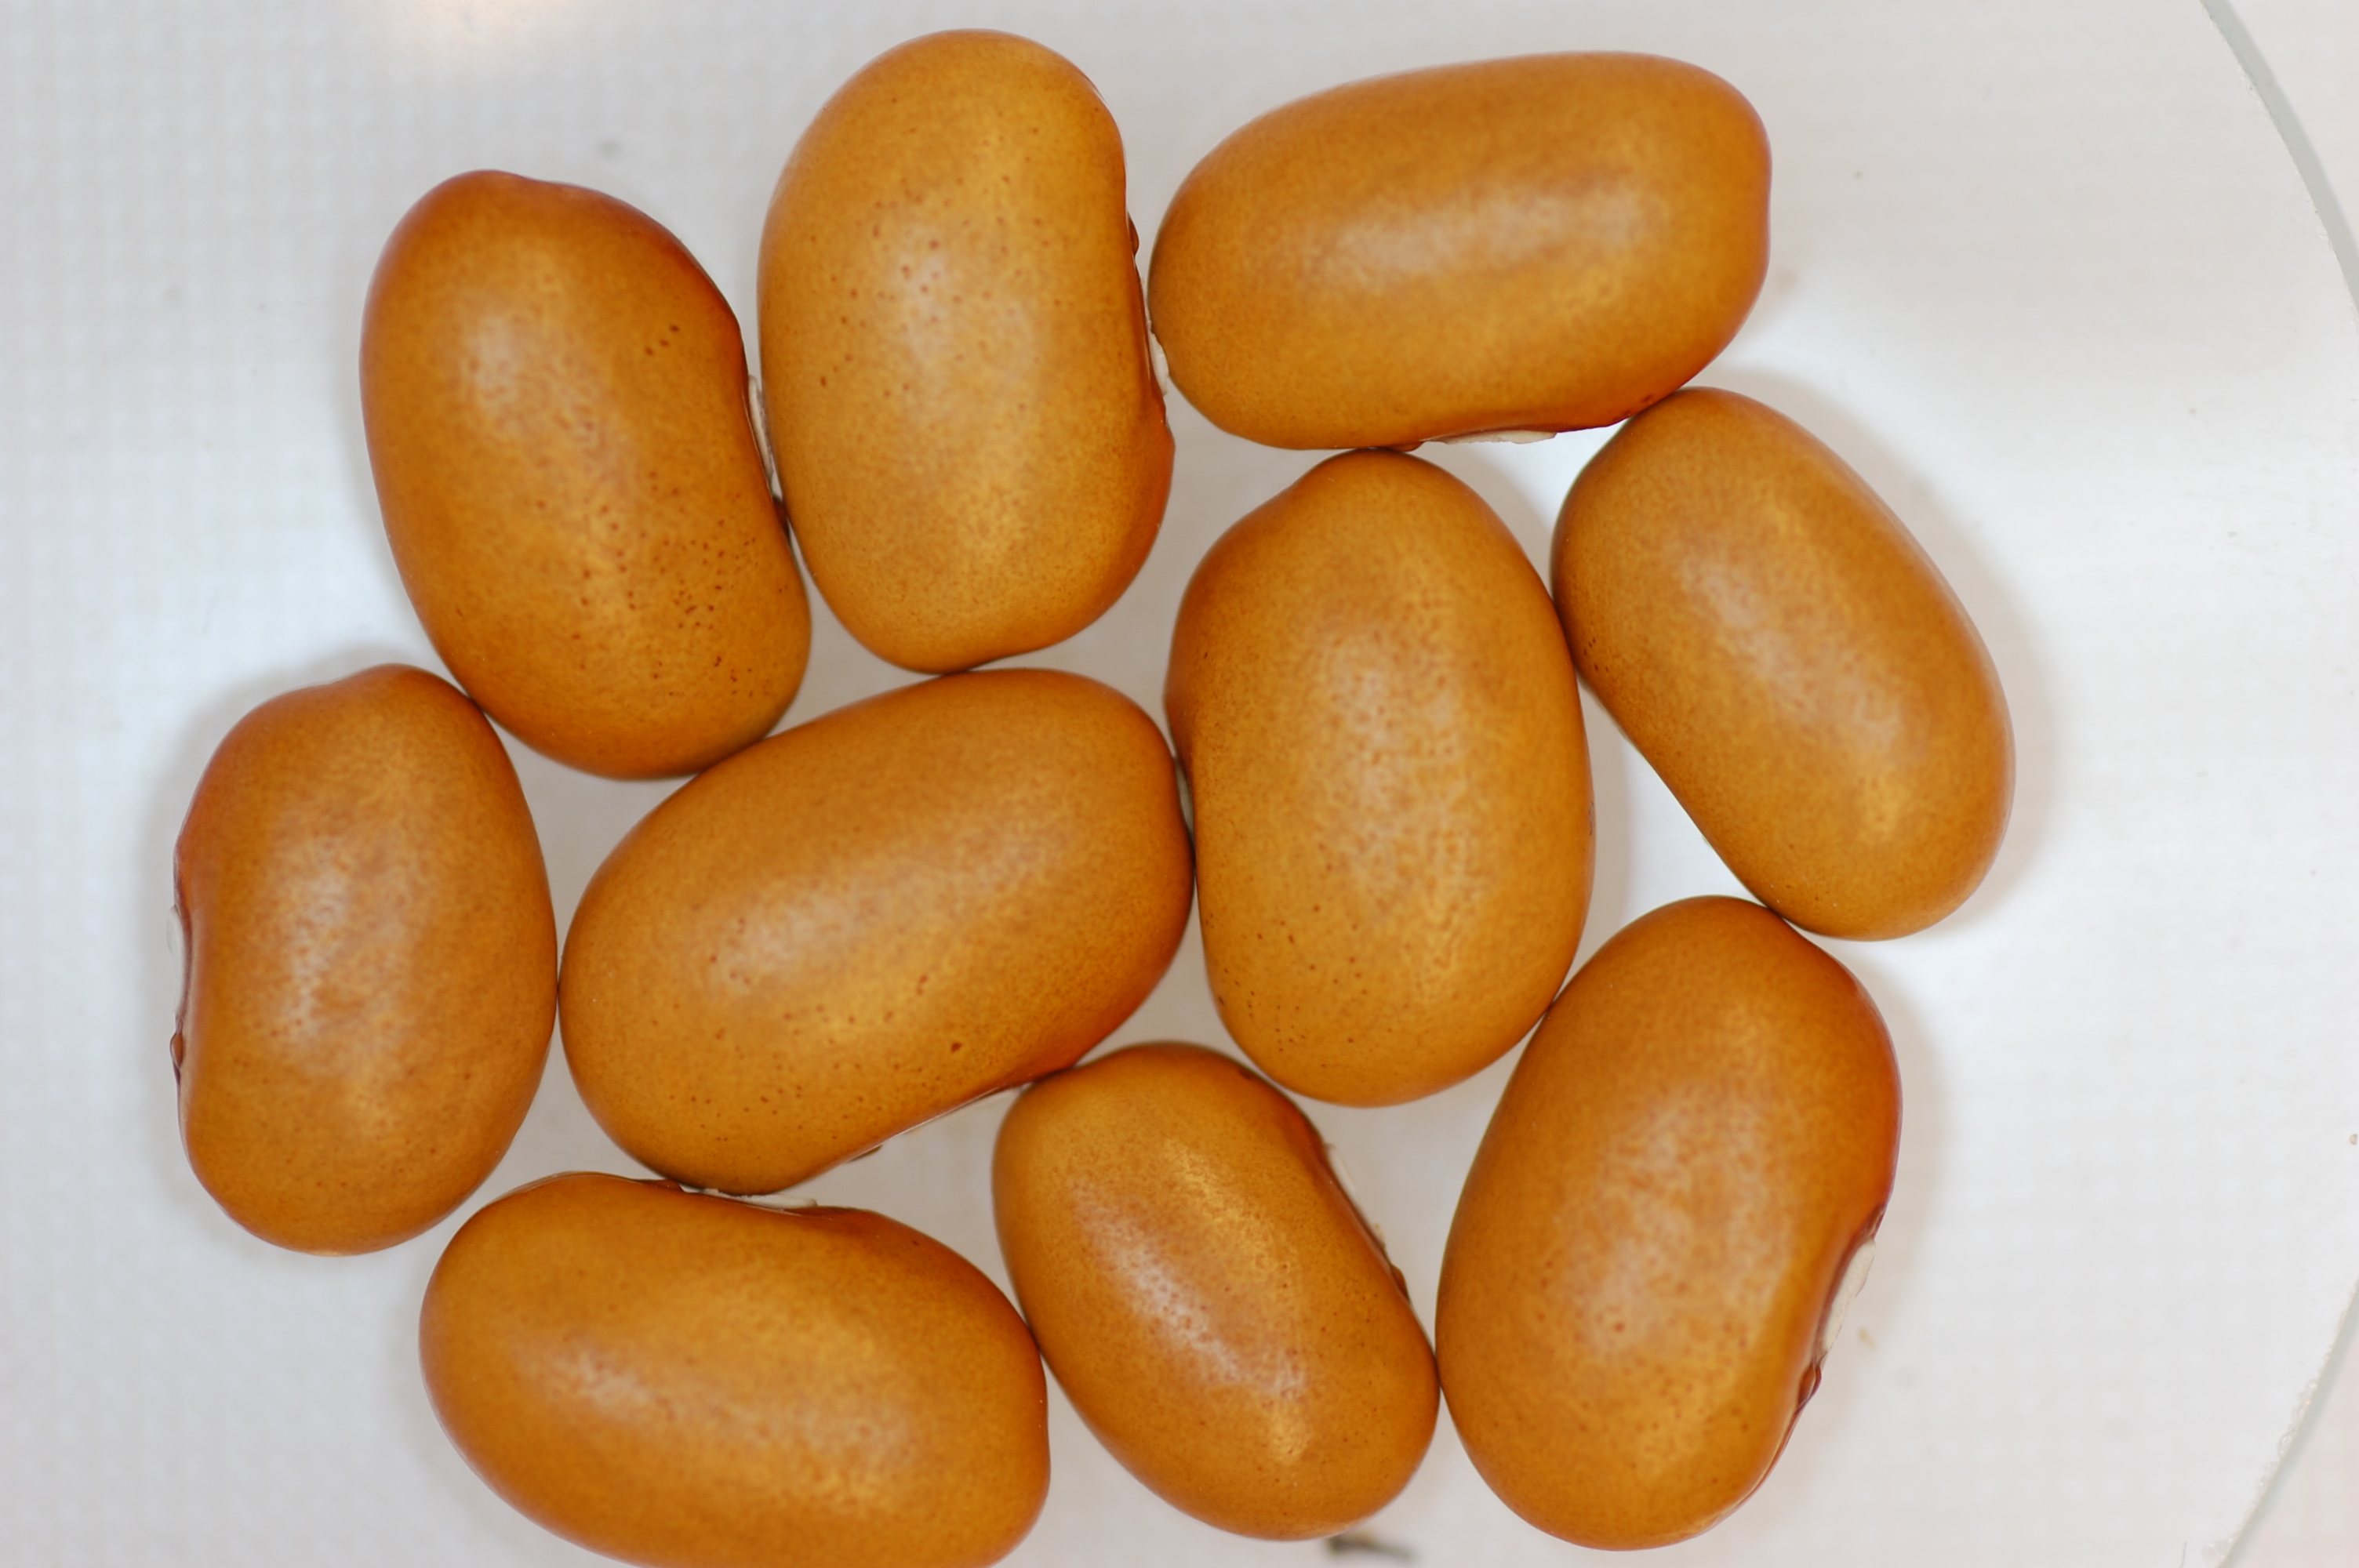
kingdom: Plantae
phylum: Tracheophyta
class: Magnoliopsida
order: Fabales
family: Fabaceae
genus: Phaseolus
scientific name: Phaseolus vulgaris
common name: Bean
